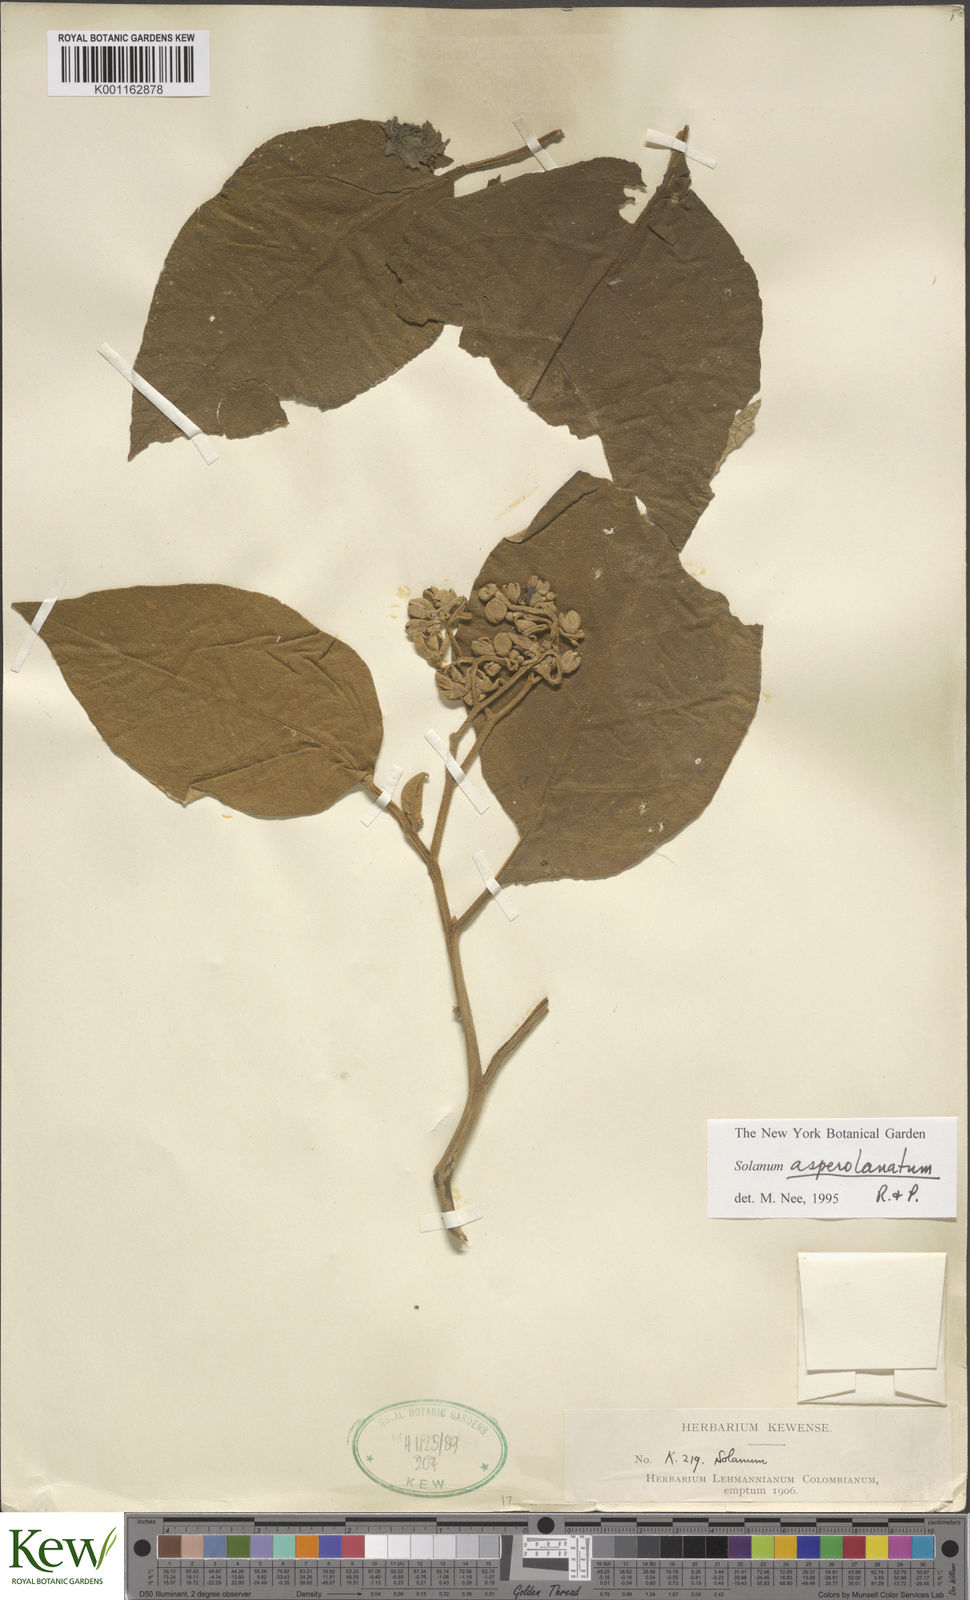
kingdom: Plantae
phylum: Tracheophyta
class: Magnoliopsida
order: Solanales
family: Solanaceae
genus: Solanum
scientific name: Solanum asperolanatum
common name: Devil's-fig
